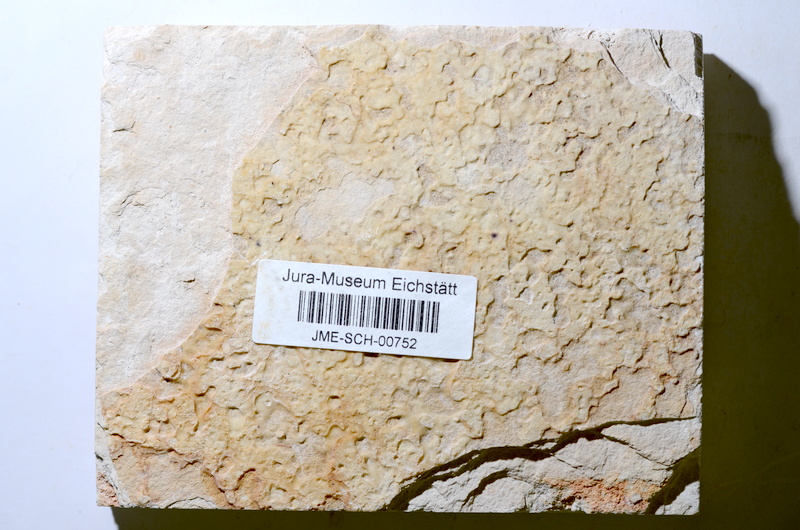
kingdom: Animalia
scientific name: Animalia
